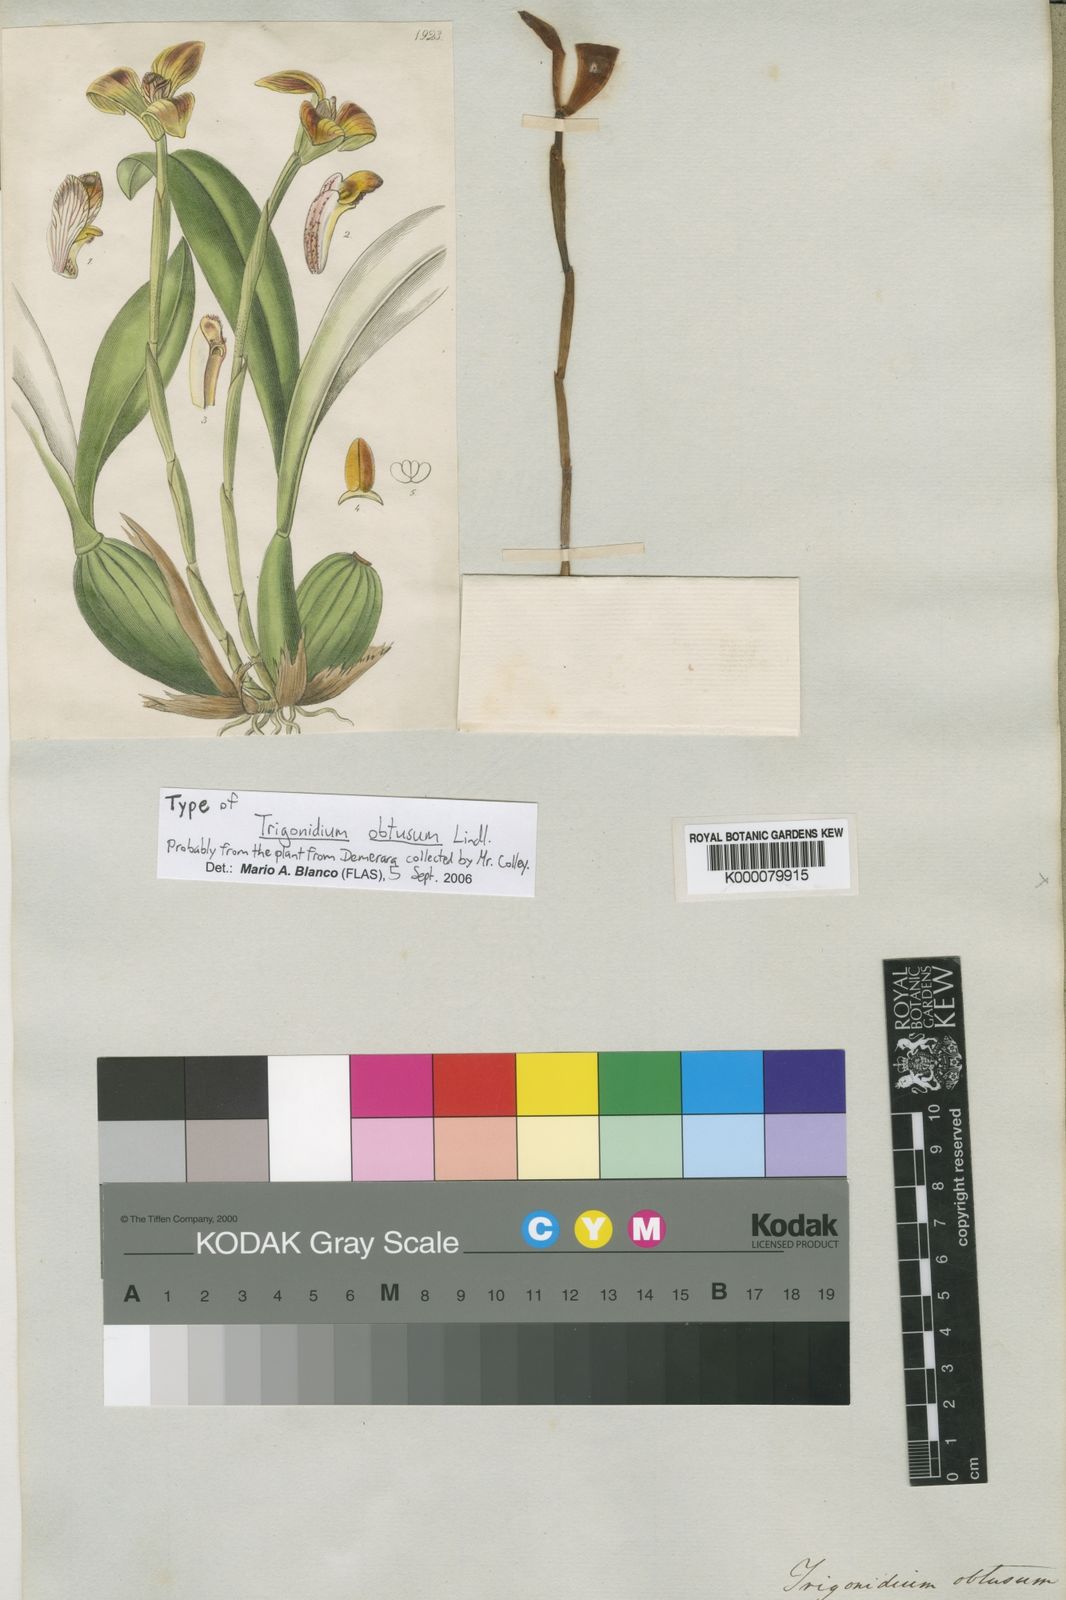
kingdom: Plantae
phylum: Tracheophyta
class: Liliopsida
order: Asparagales
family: Orchidaceae
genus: Maxillaria
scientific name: Maxillaria obtusa
